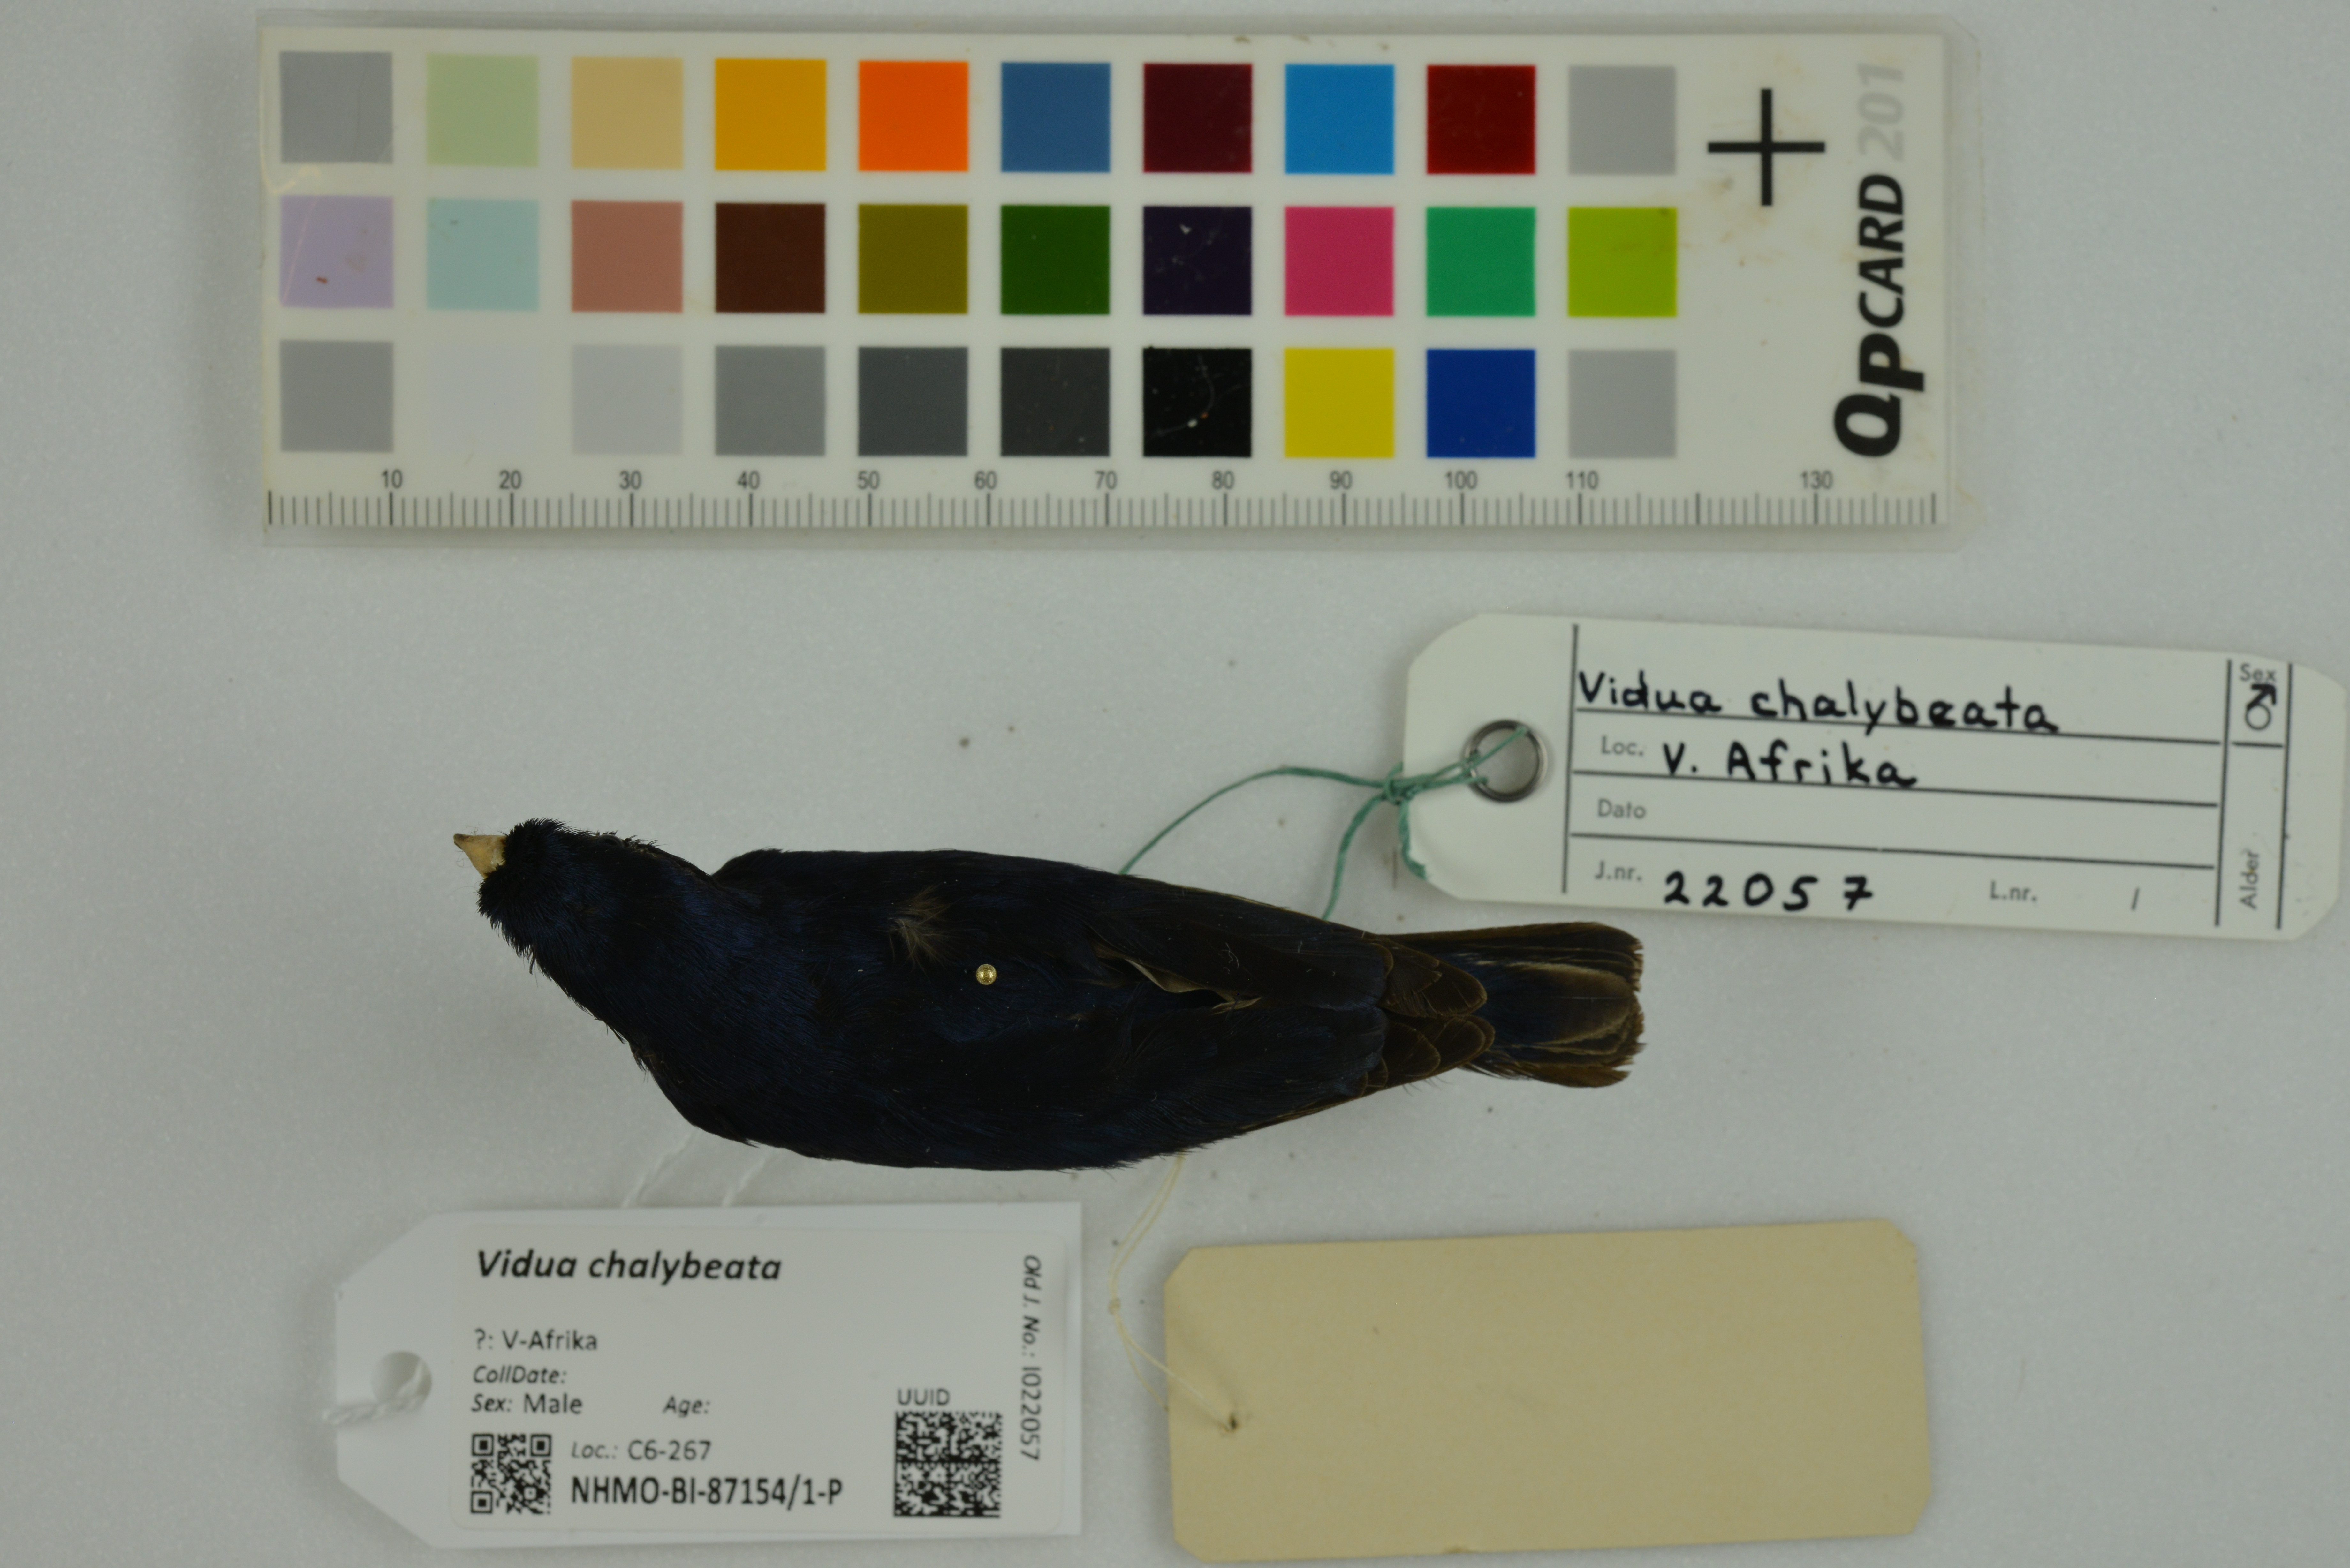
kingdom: Animalia
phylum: Chordata
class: Aves
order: Passeriformes
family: Viduidae
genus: Vidua
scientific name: Vidua chalybeata
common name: Village indigobird
